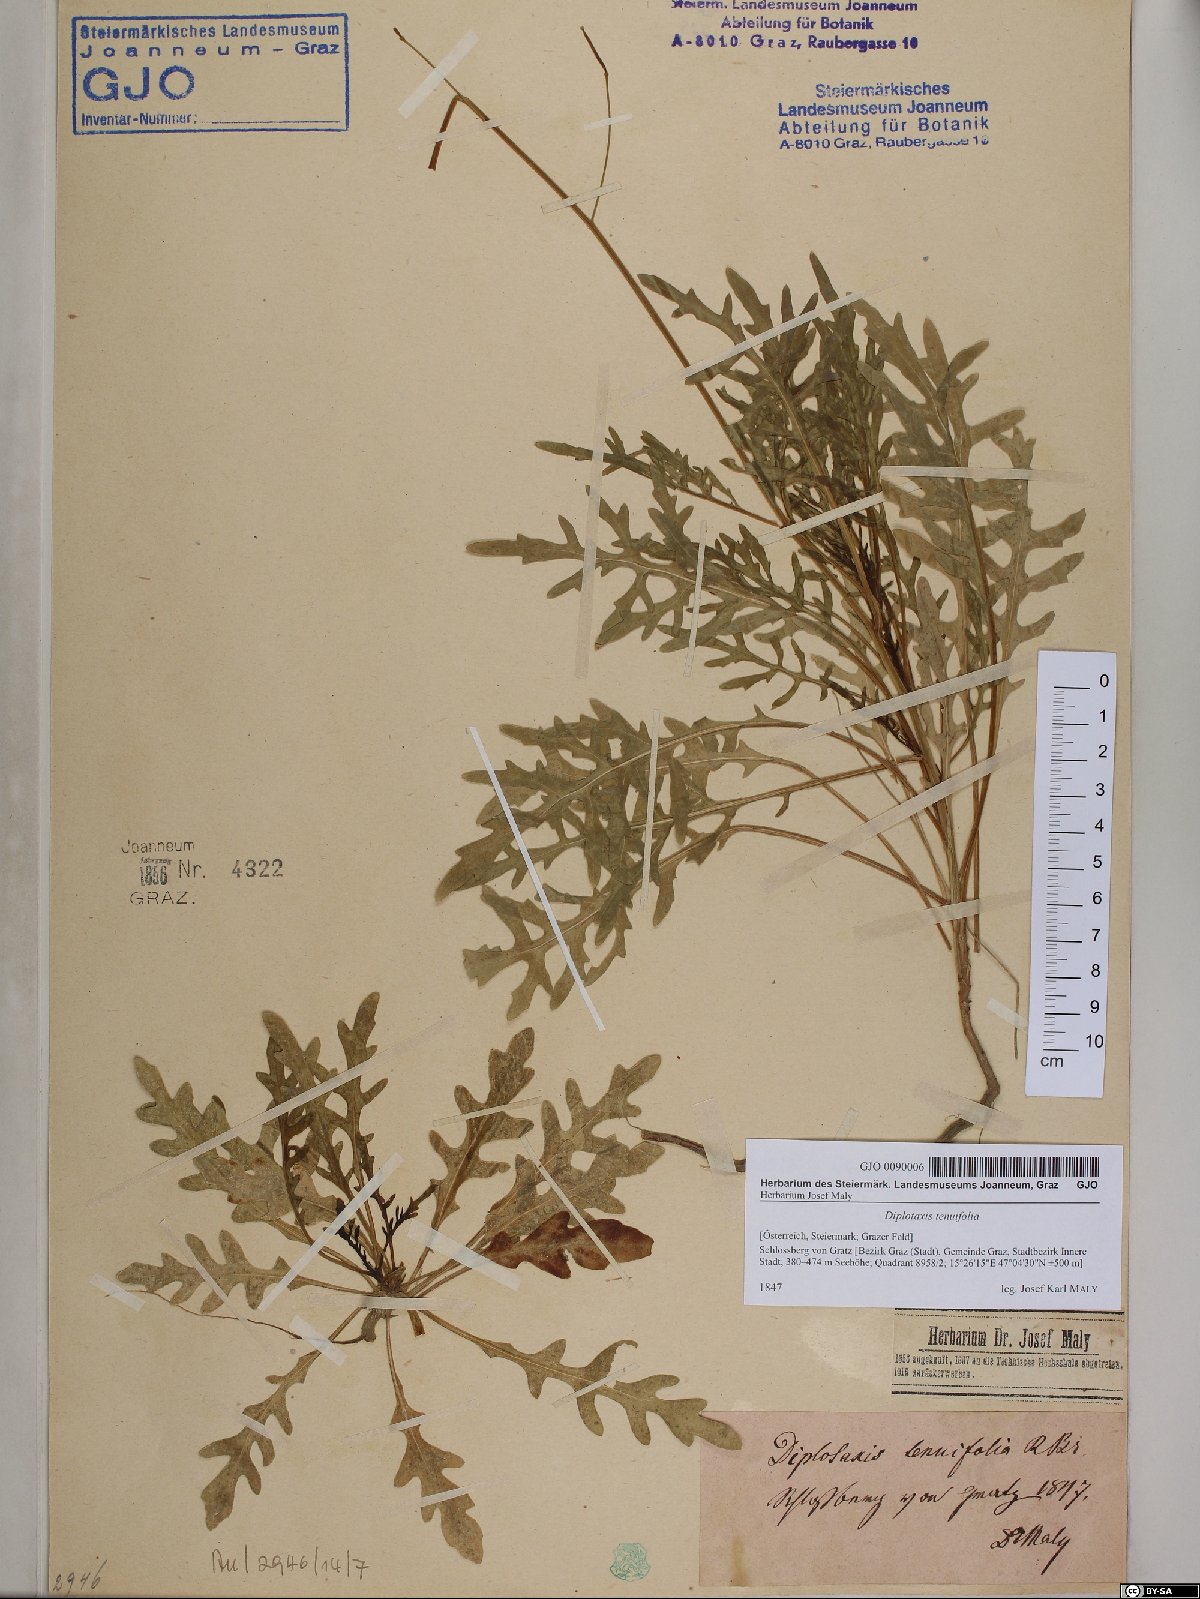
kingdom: Plantae
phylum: Tracheophyta
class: Magnoliopsida
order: Brassicales
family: Brassicaceae
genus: Diplotaxis
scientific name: Diplotaxis tenuifolia
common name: Perennial wall-rocket
